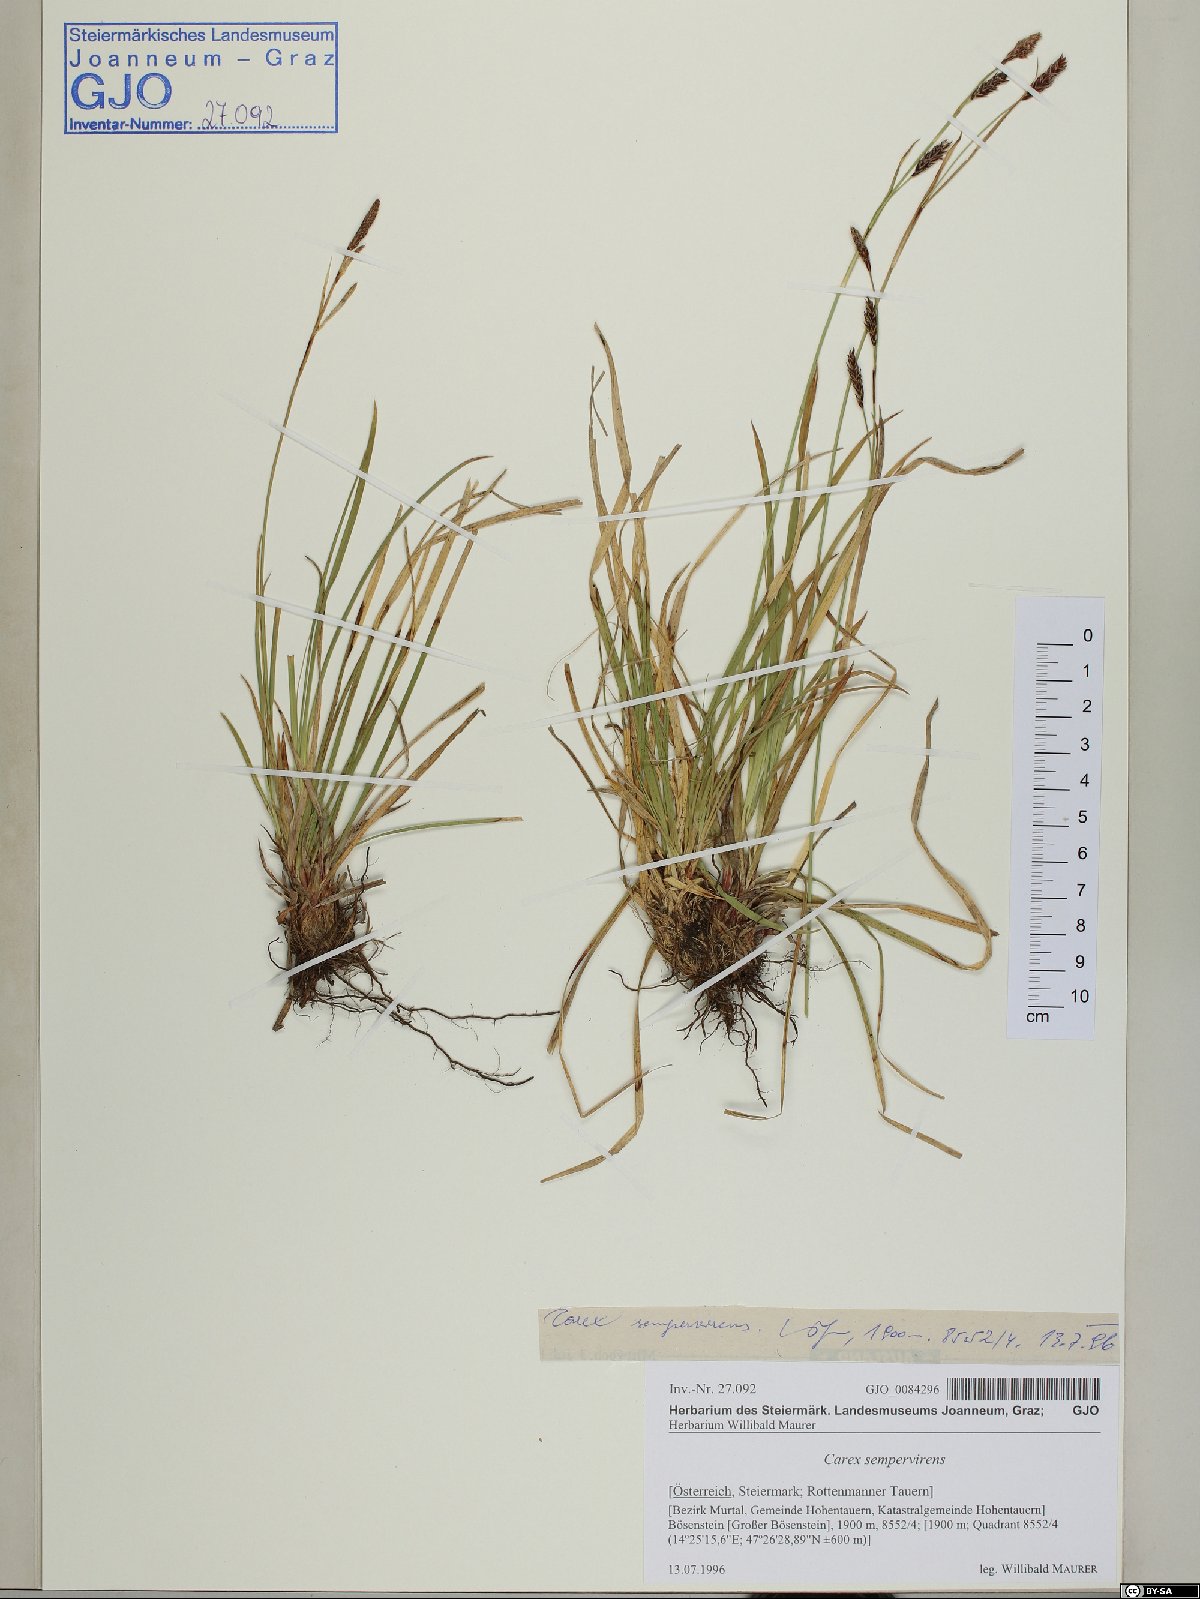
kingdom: Plantae
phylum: Tracheophyta
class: Liliopsida
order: Poales
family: Cyperaceae
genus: Carex
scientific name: Carex sempervirens
